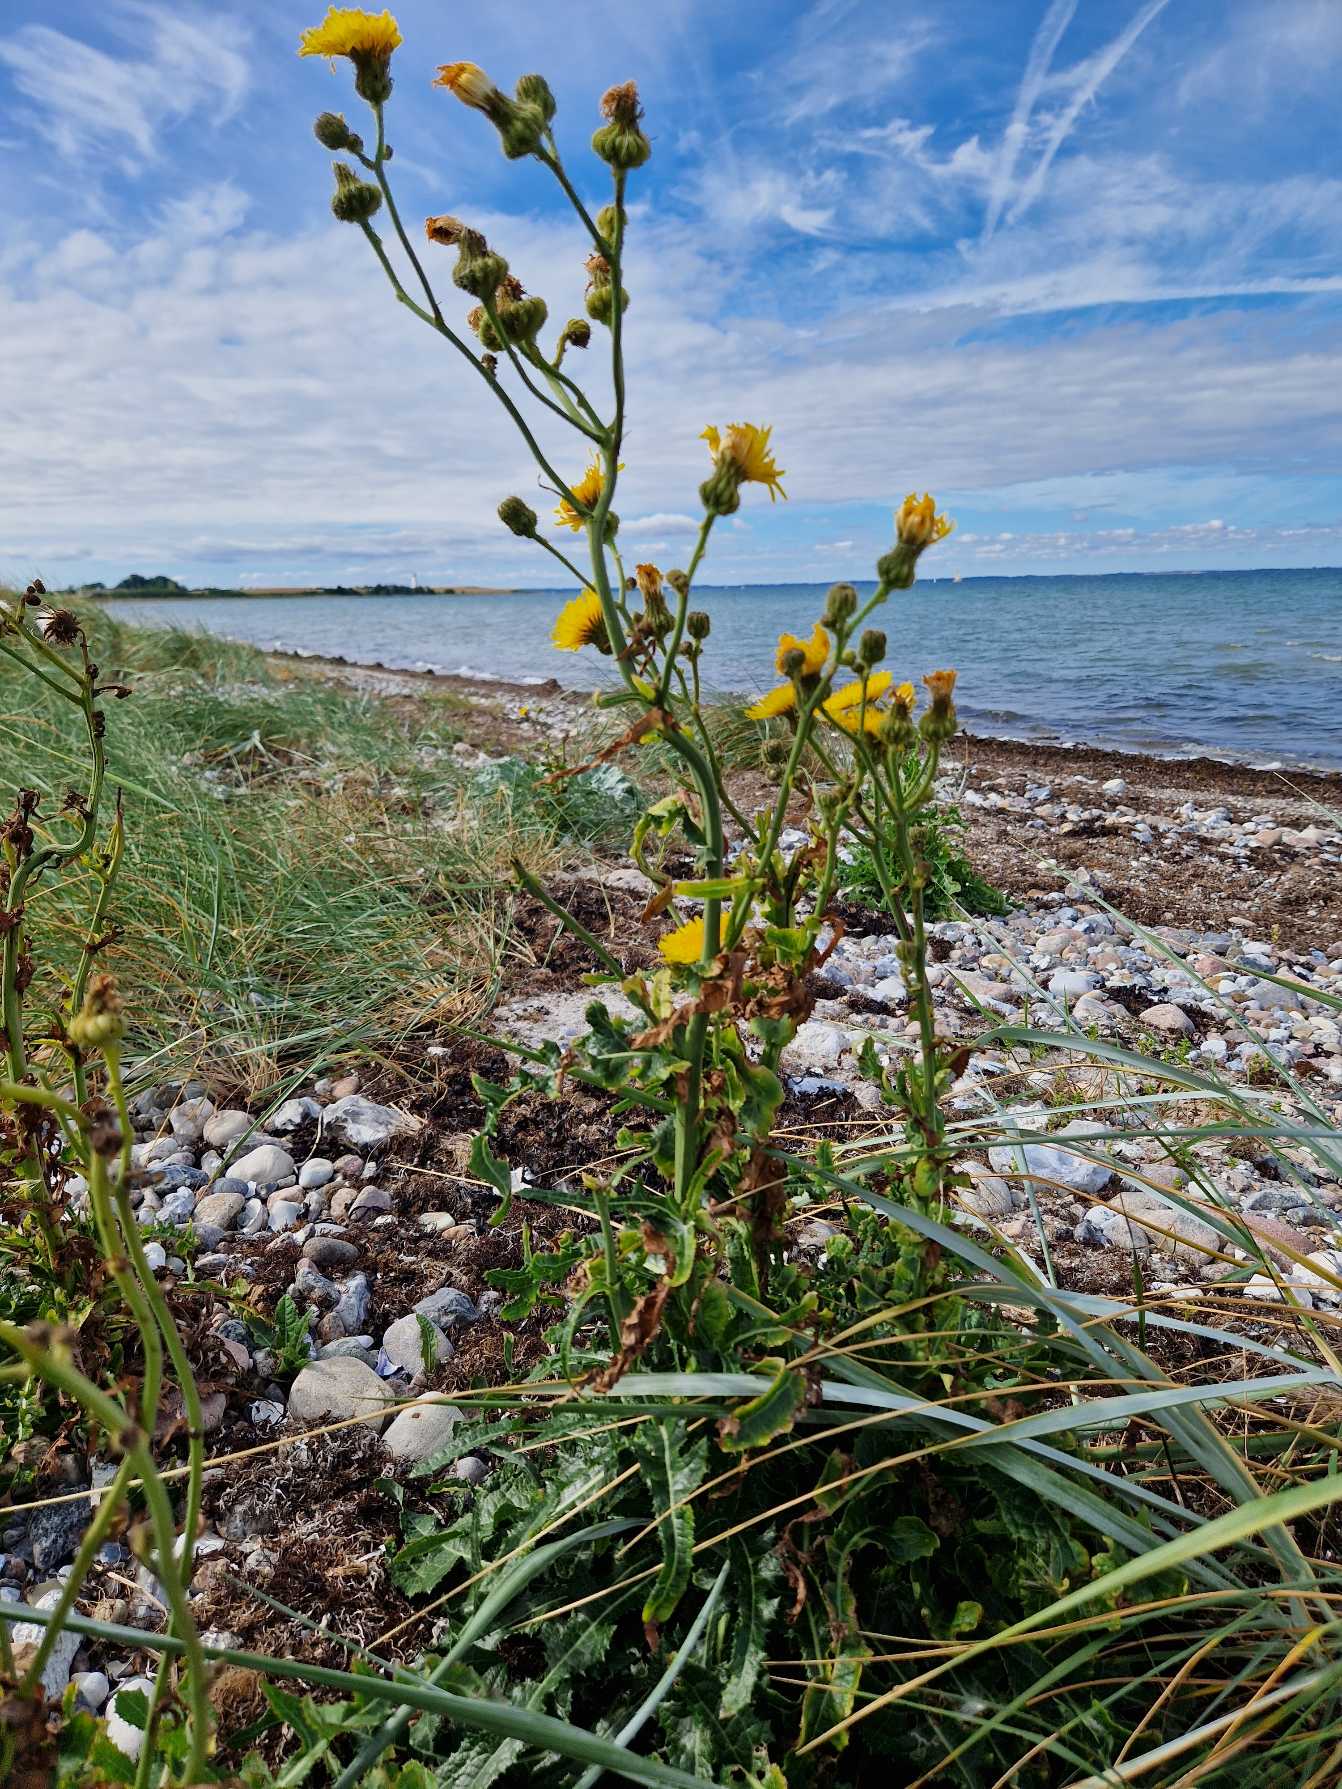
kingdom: Plantae
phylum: Tracheophyta
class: Magnoliopsida
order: Asterales
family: Asteraceae
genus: Sonchus
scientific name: Sonchus arvensis
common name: Ager-svinemælk
